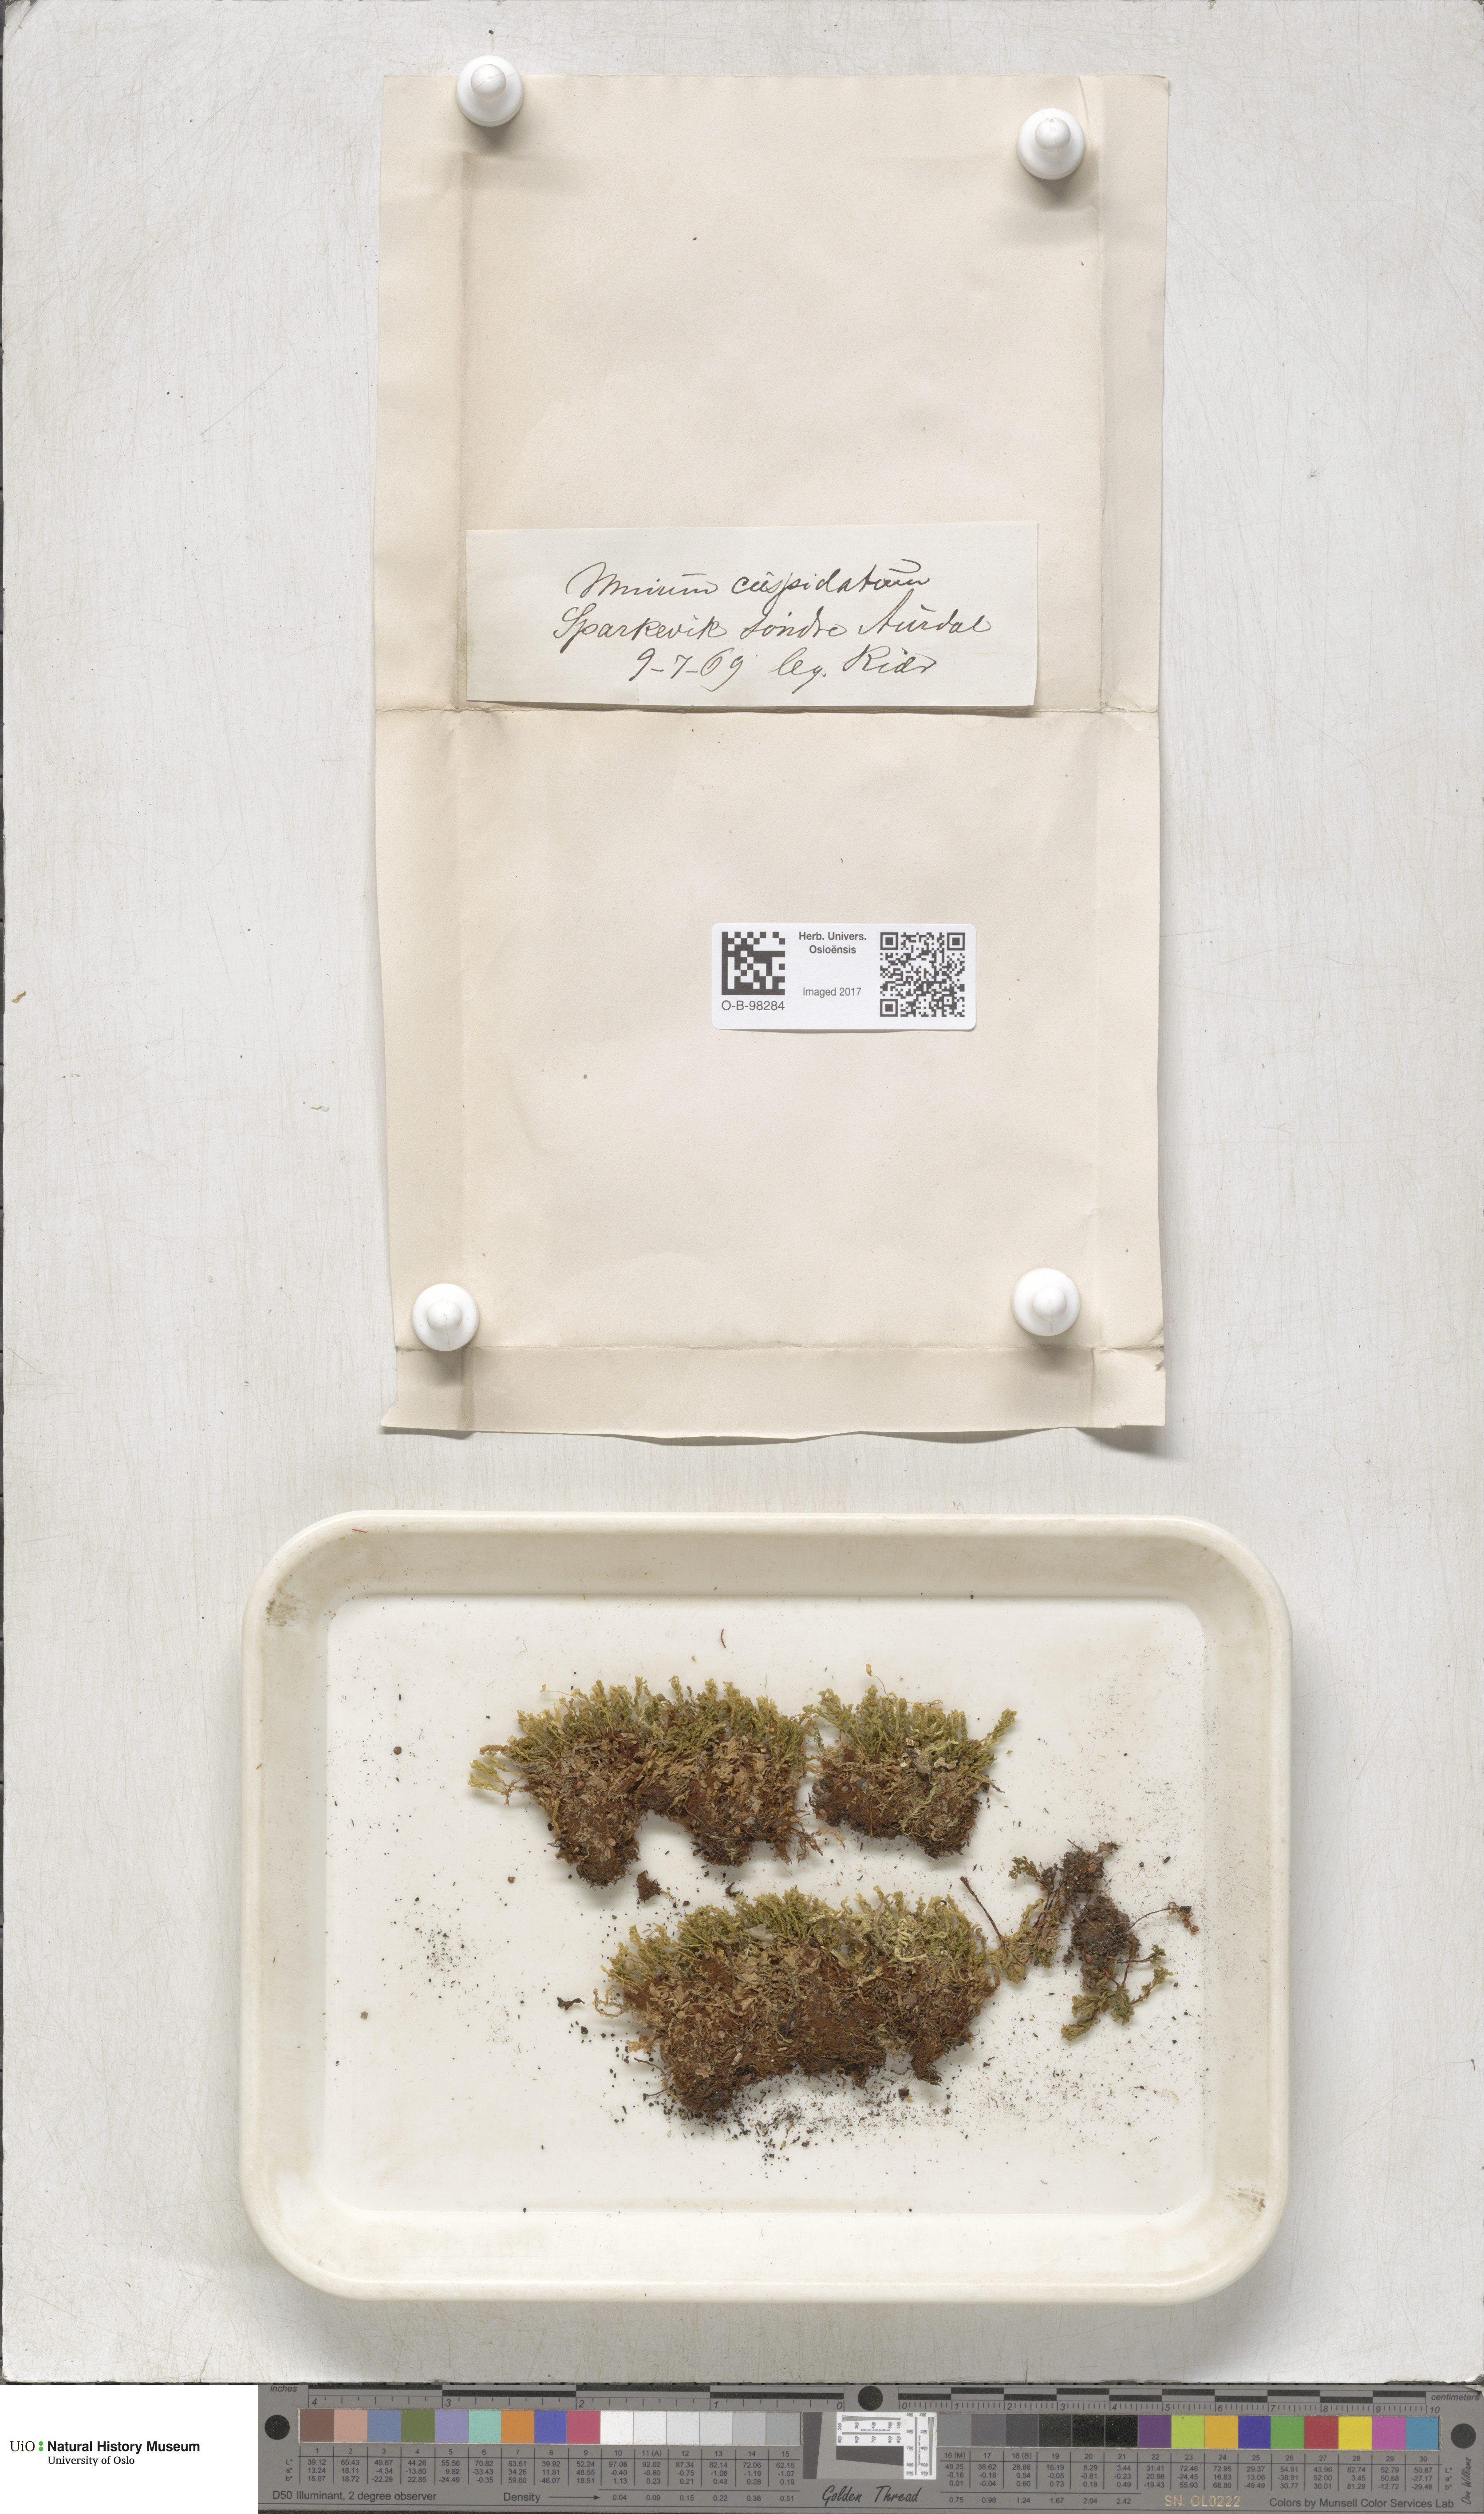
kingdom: Plantae
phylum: Bryophyta
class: Bryopsida
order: Bryales
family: Mniaceae
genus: Plagiomnium
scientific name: Plagiomnium cuspidatum
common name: Woodsy leafy moss
